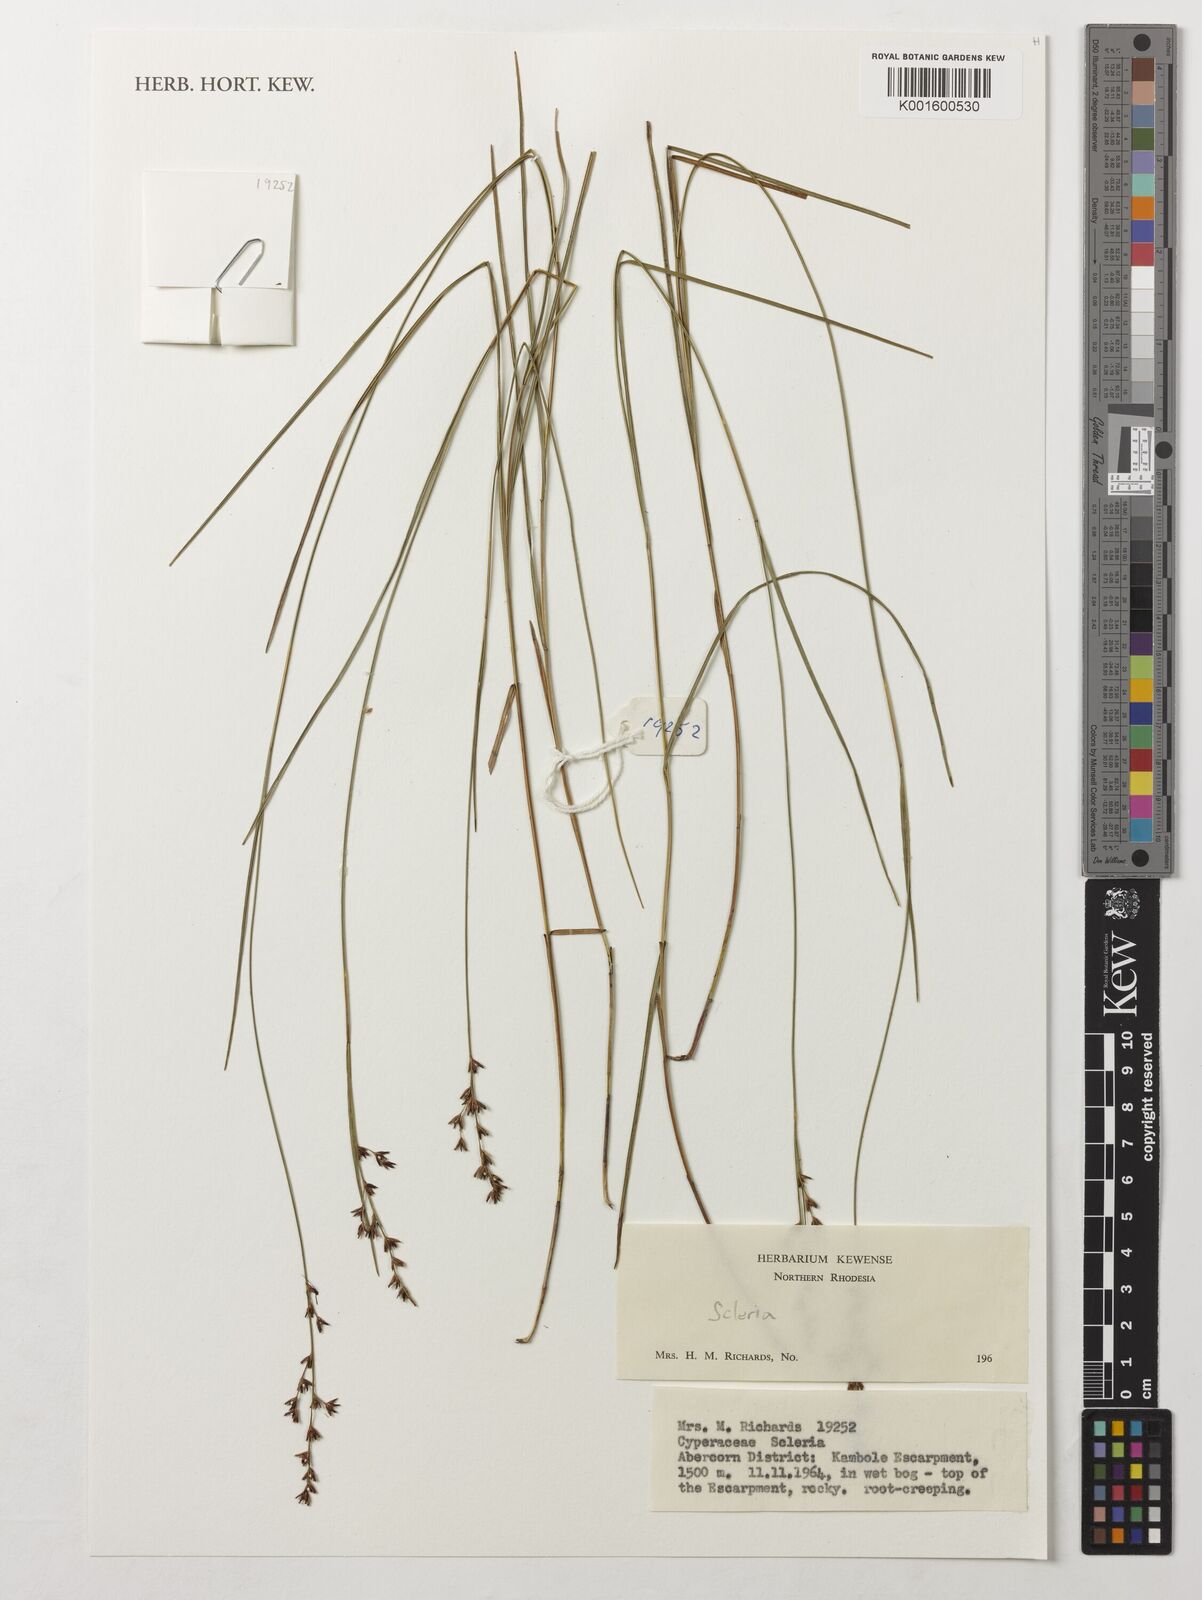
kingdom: Plantae
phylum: Tracheophyta
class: Liliopsida
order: Poales
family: Cyperaceae
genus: Scleria
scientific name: Scleria
